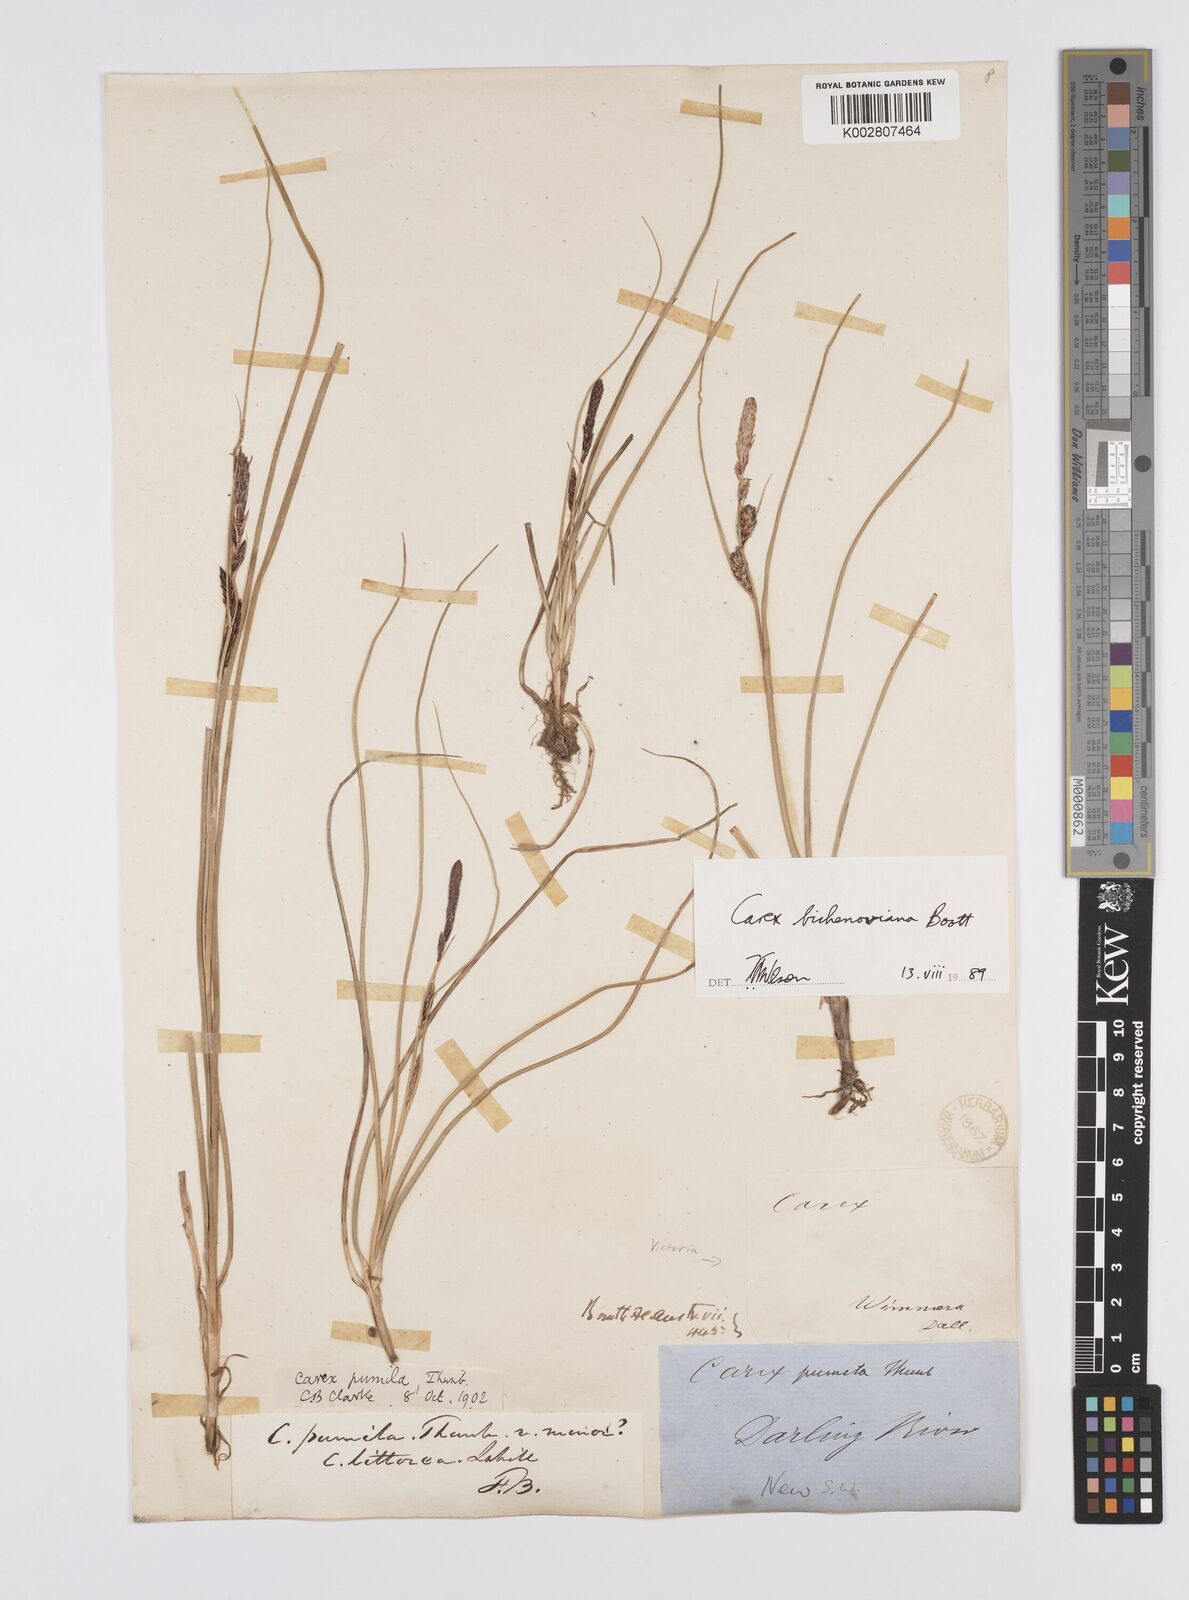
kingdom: Plantae
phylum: Tracheophyta
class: Liliopsida
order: Poales
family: Cyperaceae
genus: Carex
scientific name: Carex bichenoviana
